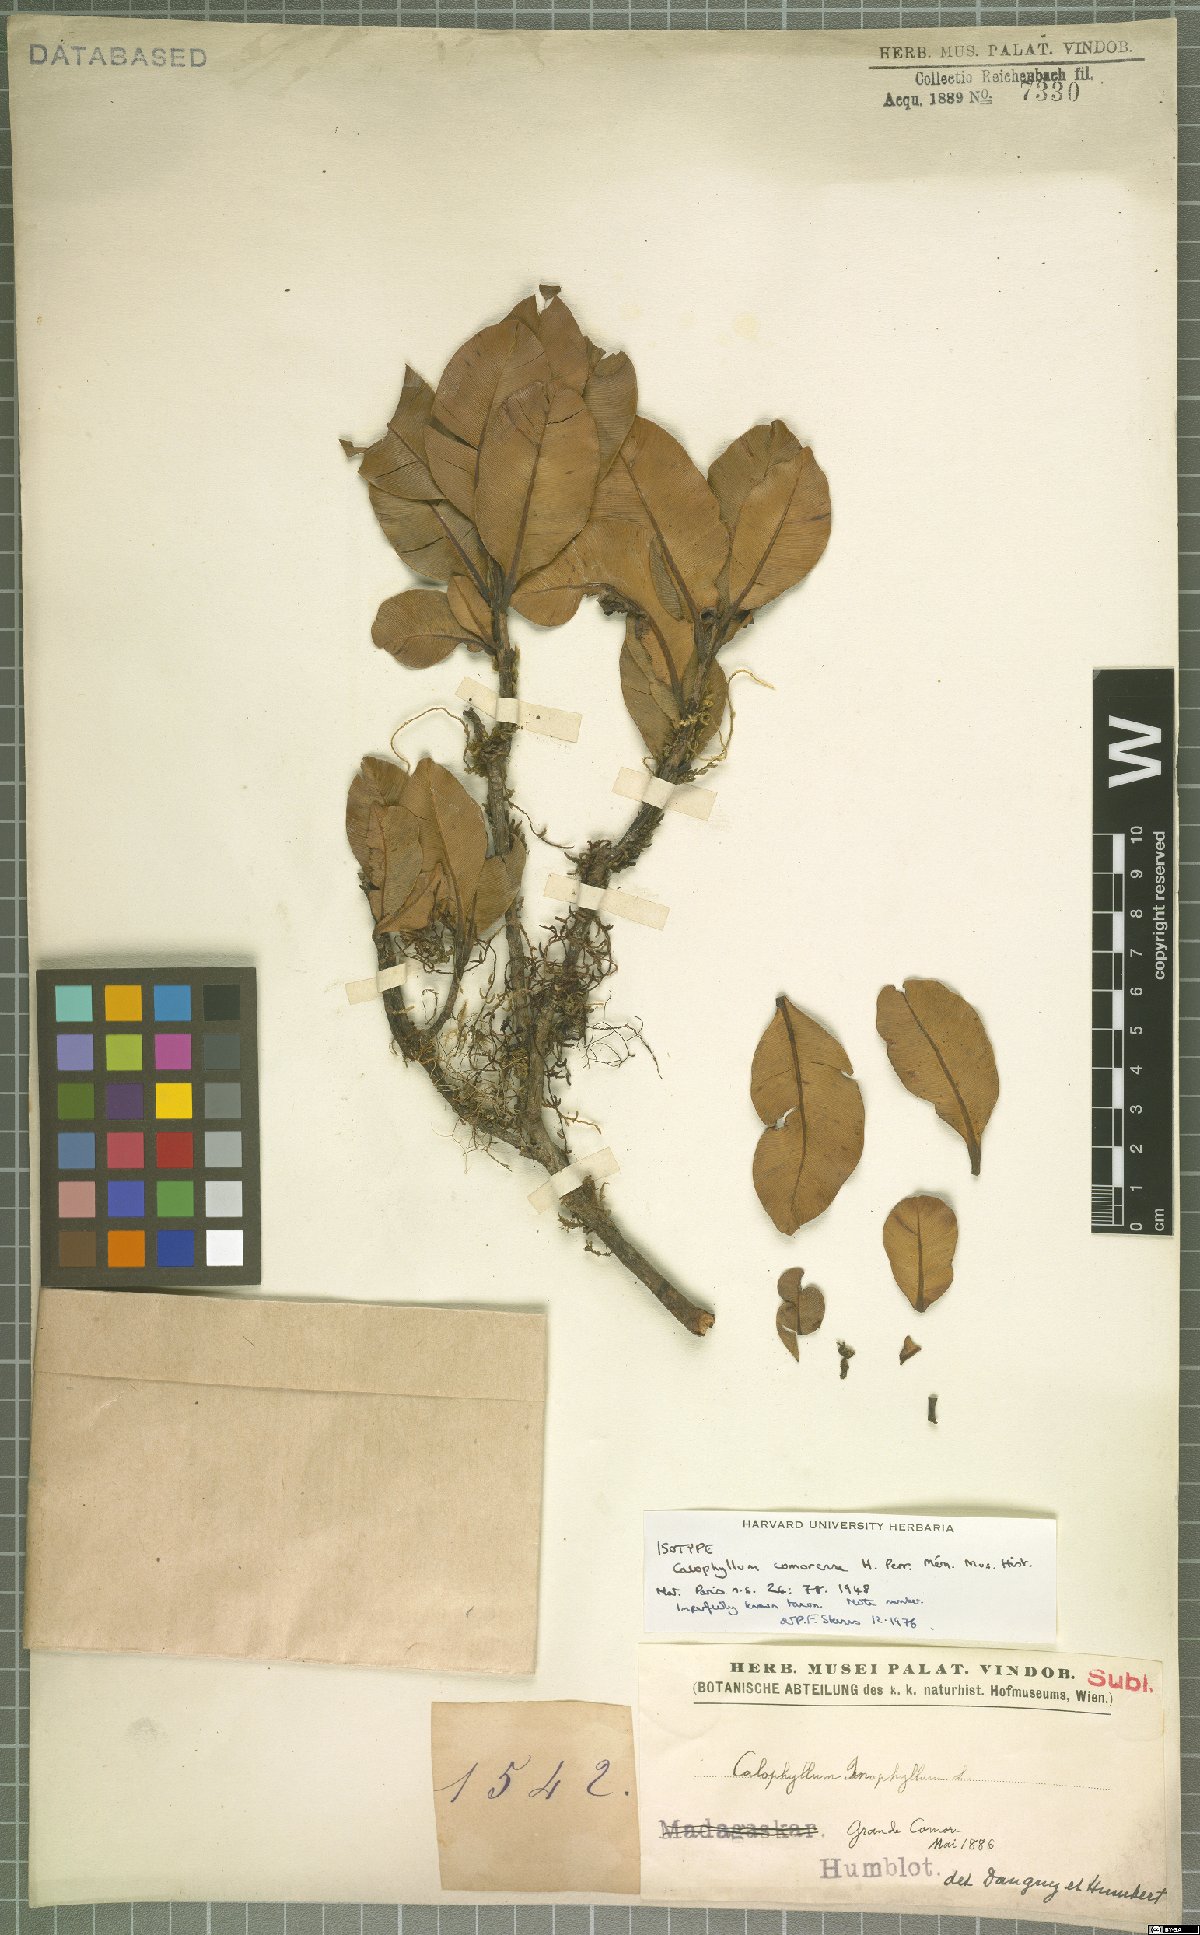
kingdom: Plantae
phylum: Tracheophyta
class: Magnoliopsida
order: Malpighiales
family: Calophyllaceae
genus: Calophyllum
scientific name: Calophyllum comorense
